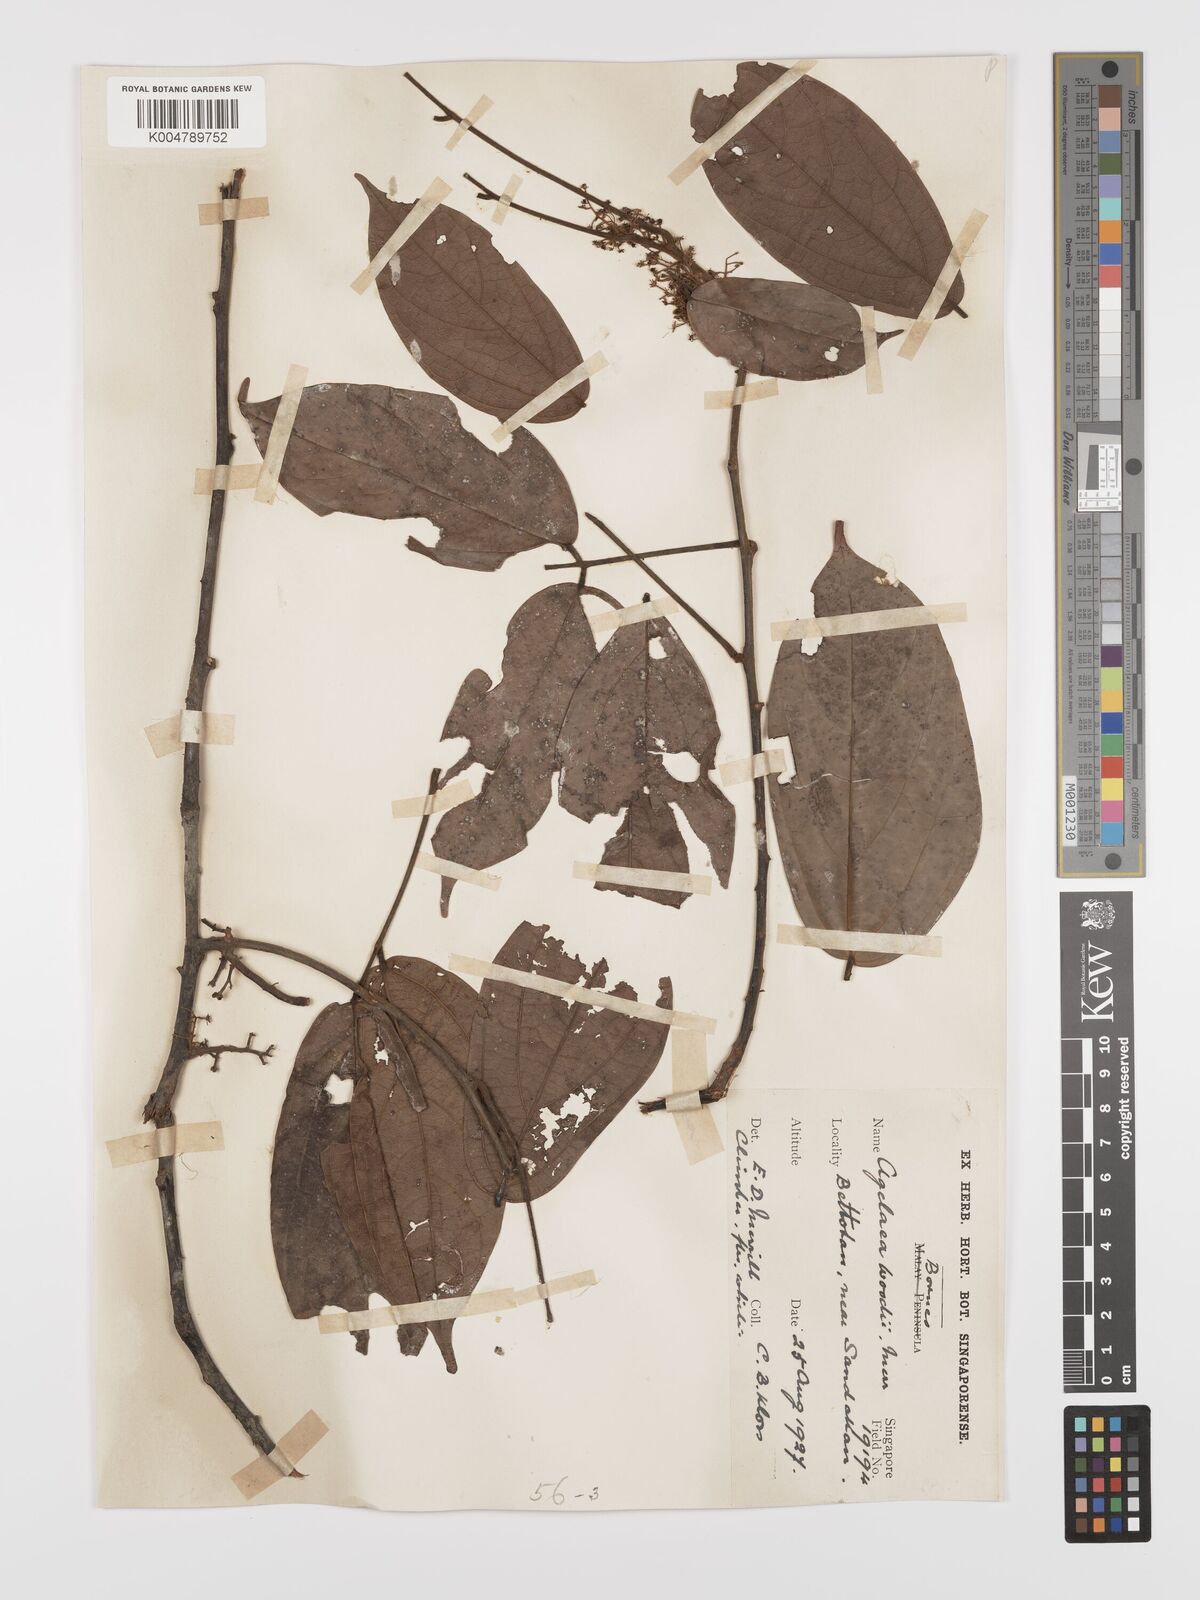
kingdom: Plantae
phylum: Tracheophyta
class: Magnoliopsida
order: Oxalidales
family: Connaraceae
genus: Agelaea
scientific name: Agelaea borneensis
